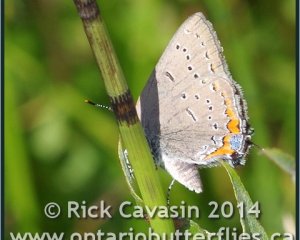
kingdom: Animalia
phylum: Arthropoda
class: Insecta
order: Lepidoptera
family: Lycaenidae
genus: Strymon
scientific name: Strymon acadica
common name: Acadian Hairstreak
